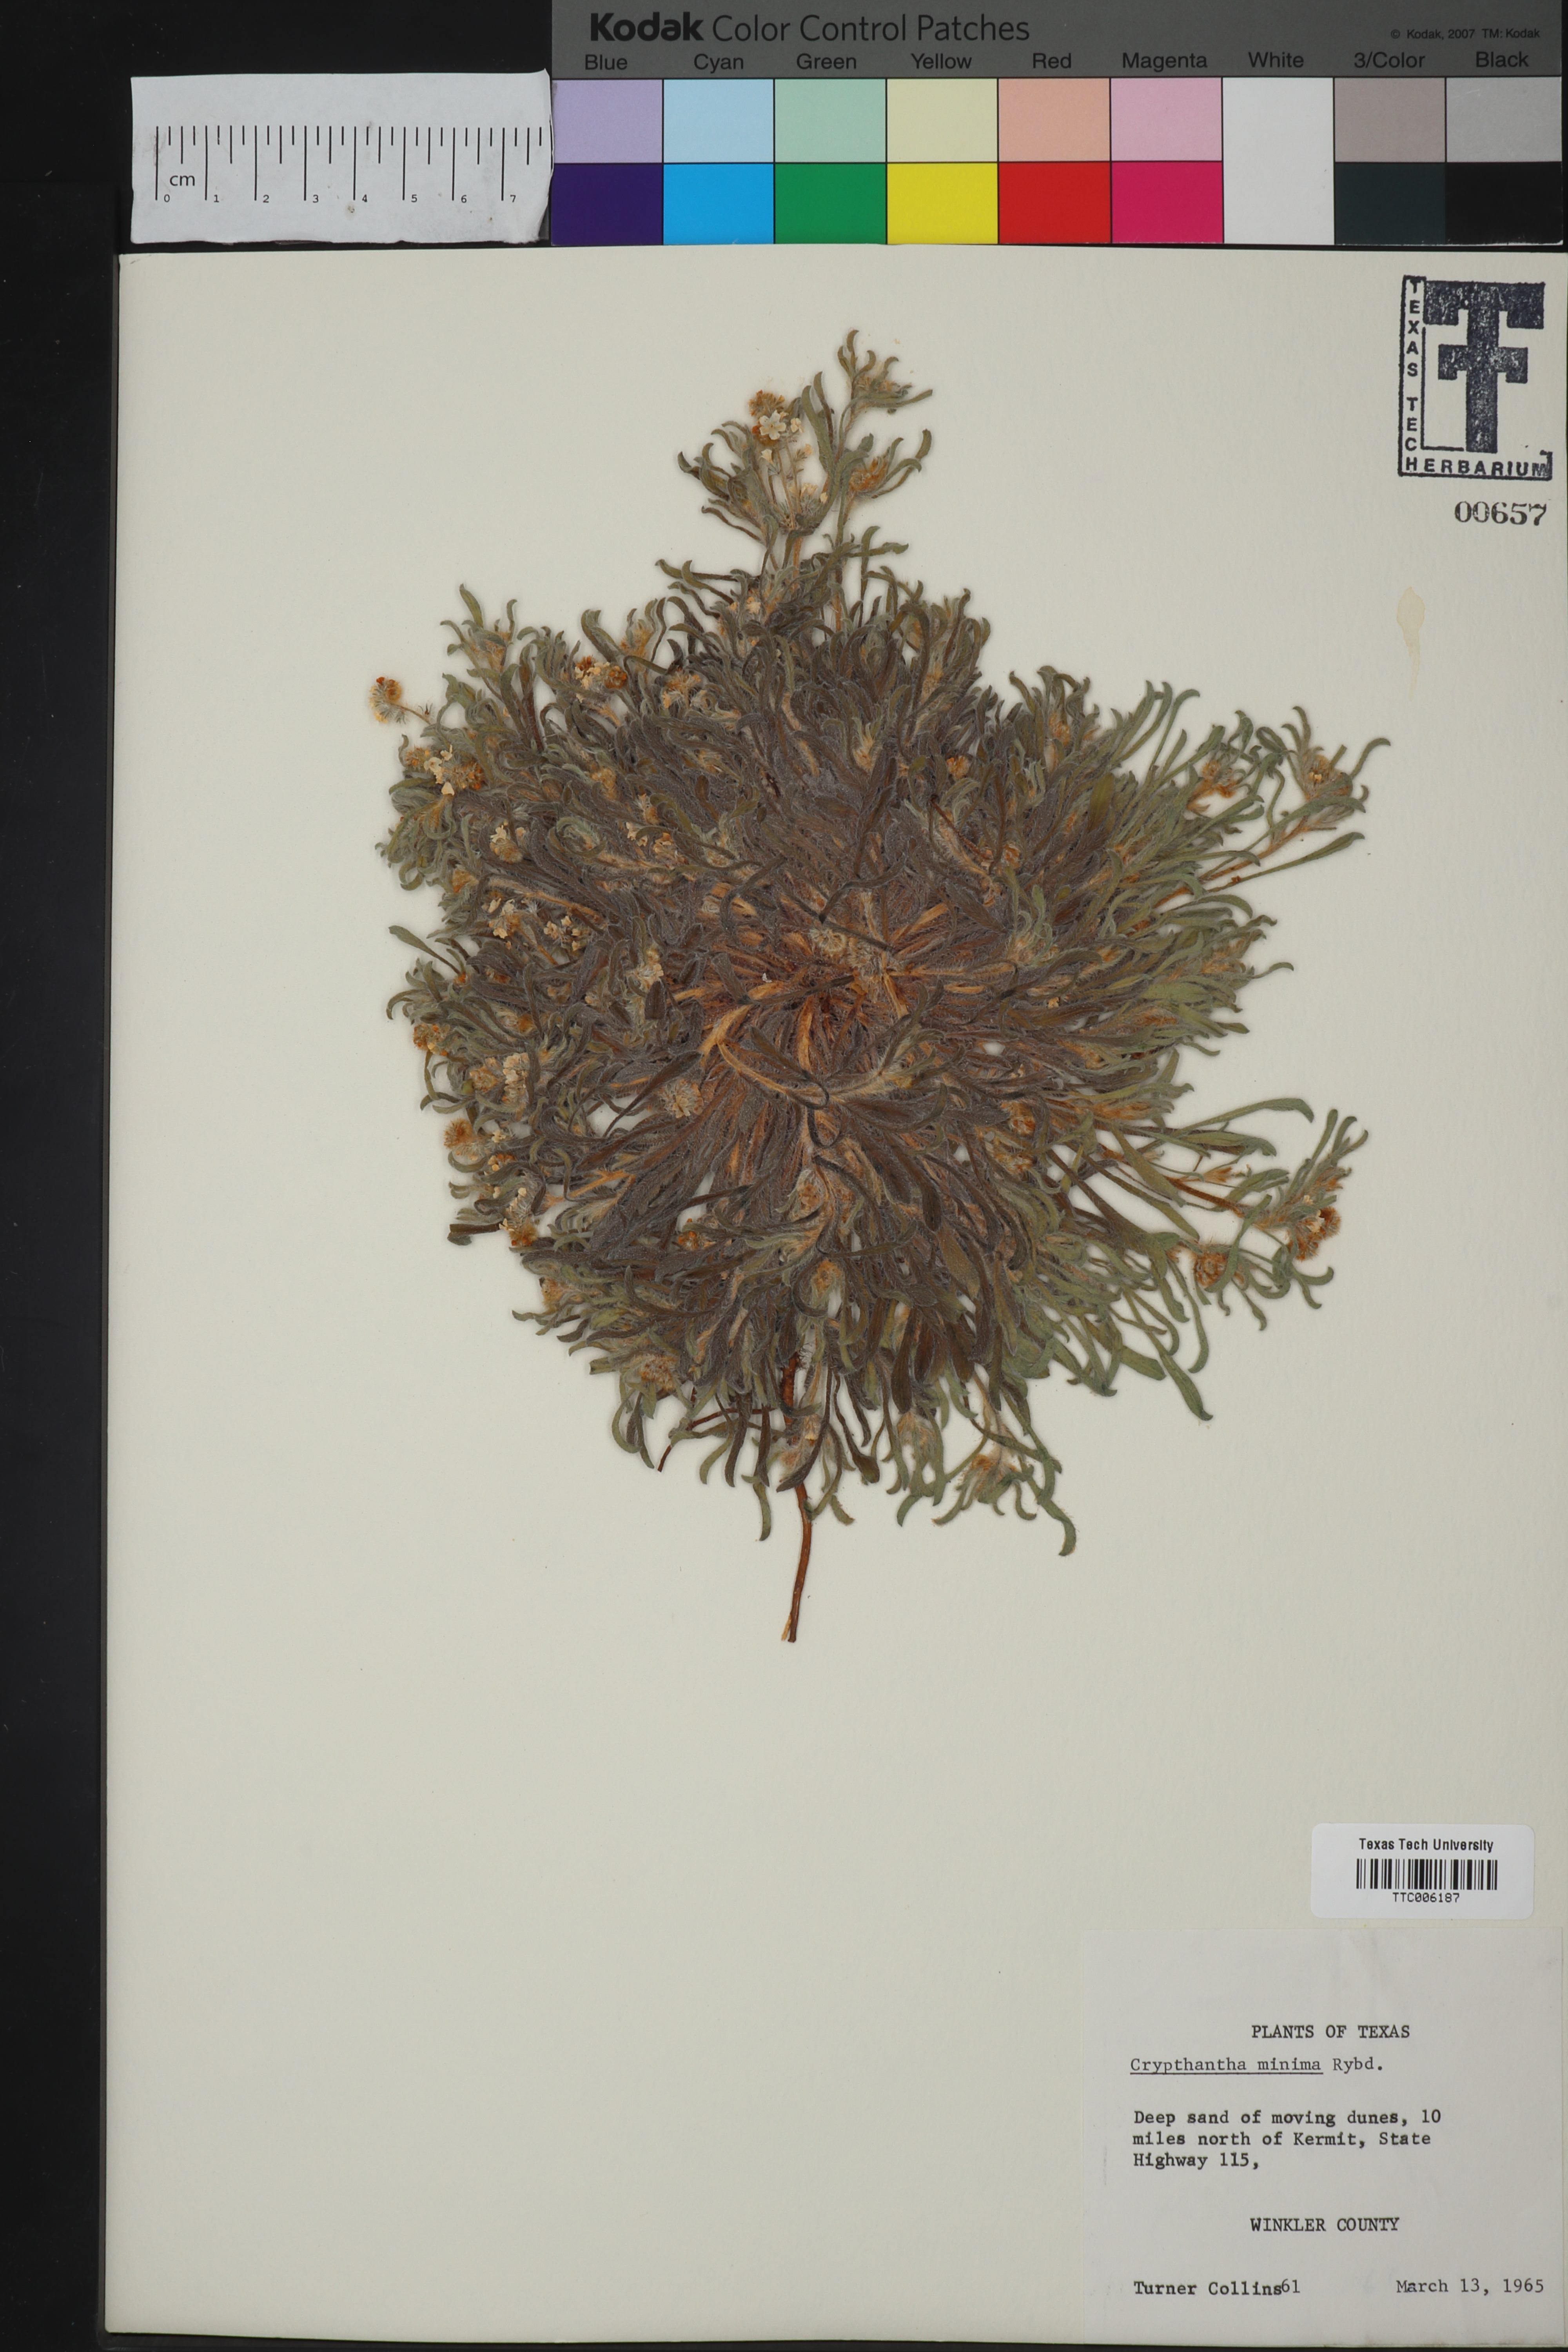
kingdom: Plantae
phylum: Tracheophyta
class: Magnoliopsida
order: Boraginales
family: Boraginaceae
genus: Cryptantha
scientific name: Cryptantha minima
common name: Little cat's-eye
